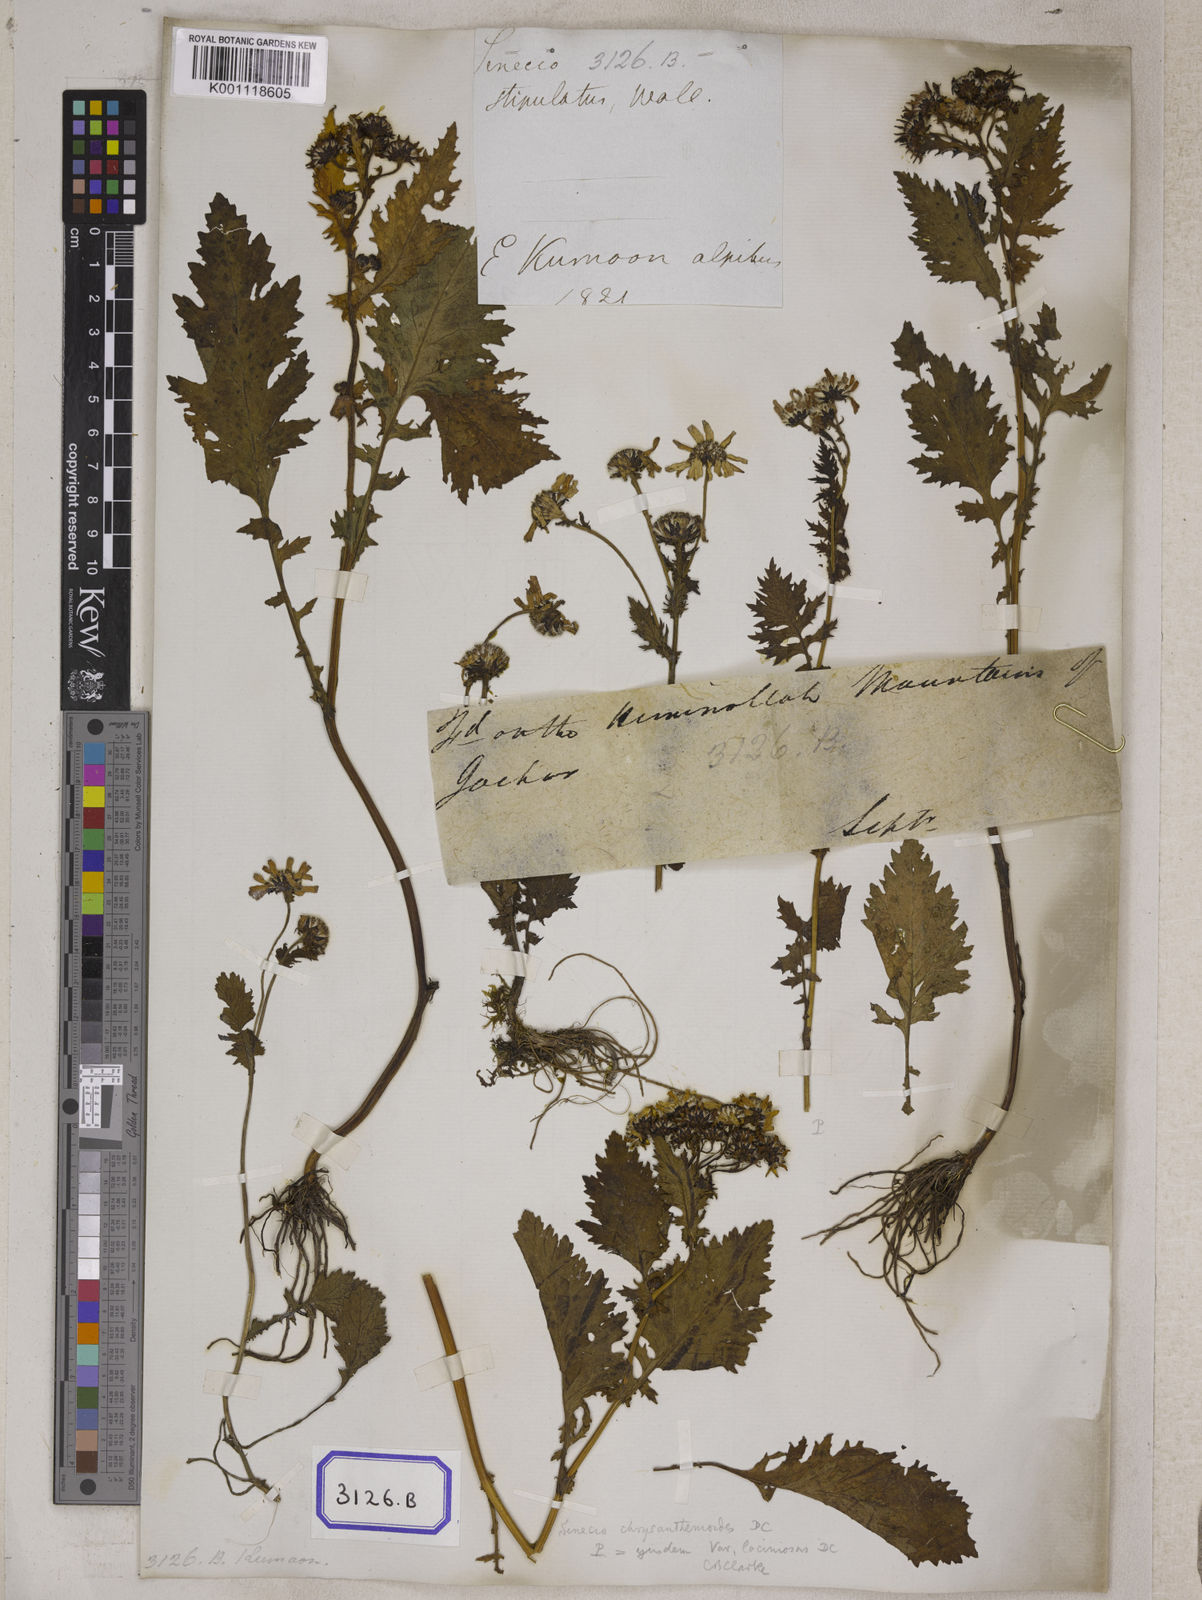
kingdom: Plantae
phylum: Tracheophyta
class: Magnoliopsida
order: Asterales
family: Asteraceae
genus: Senecio
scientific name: Senecio
